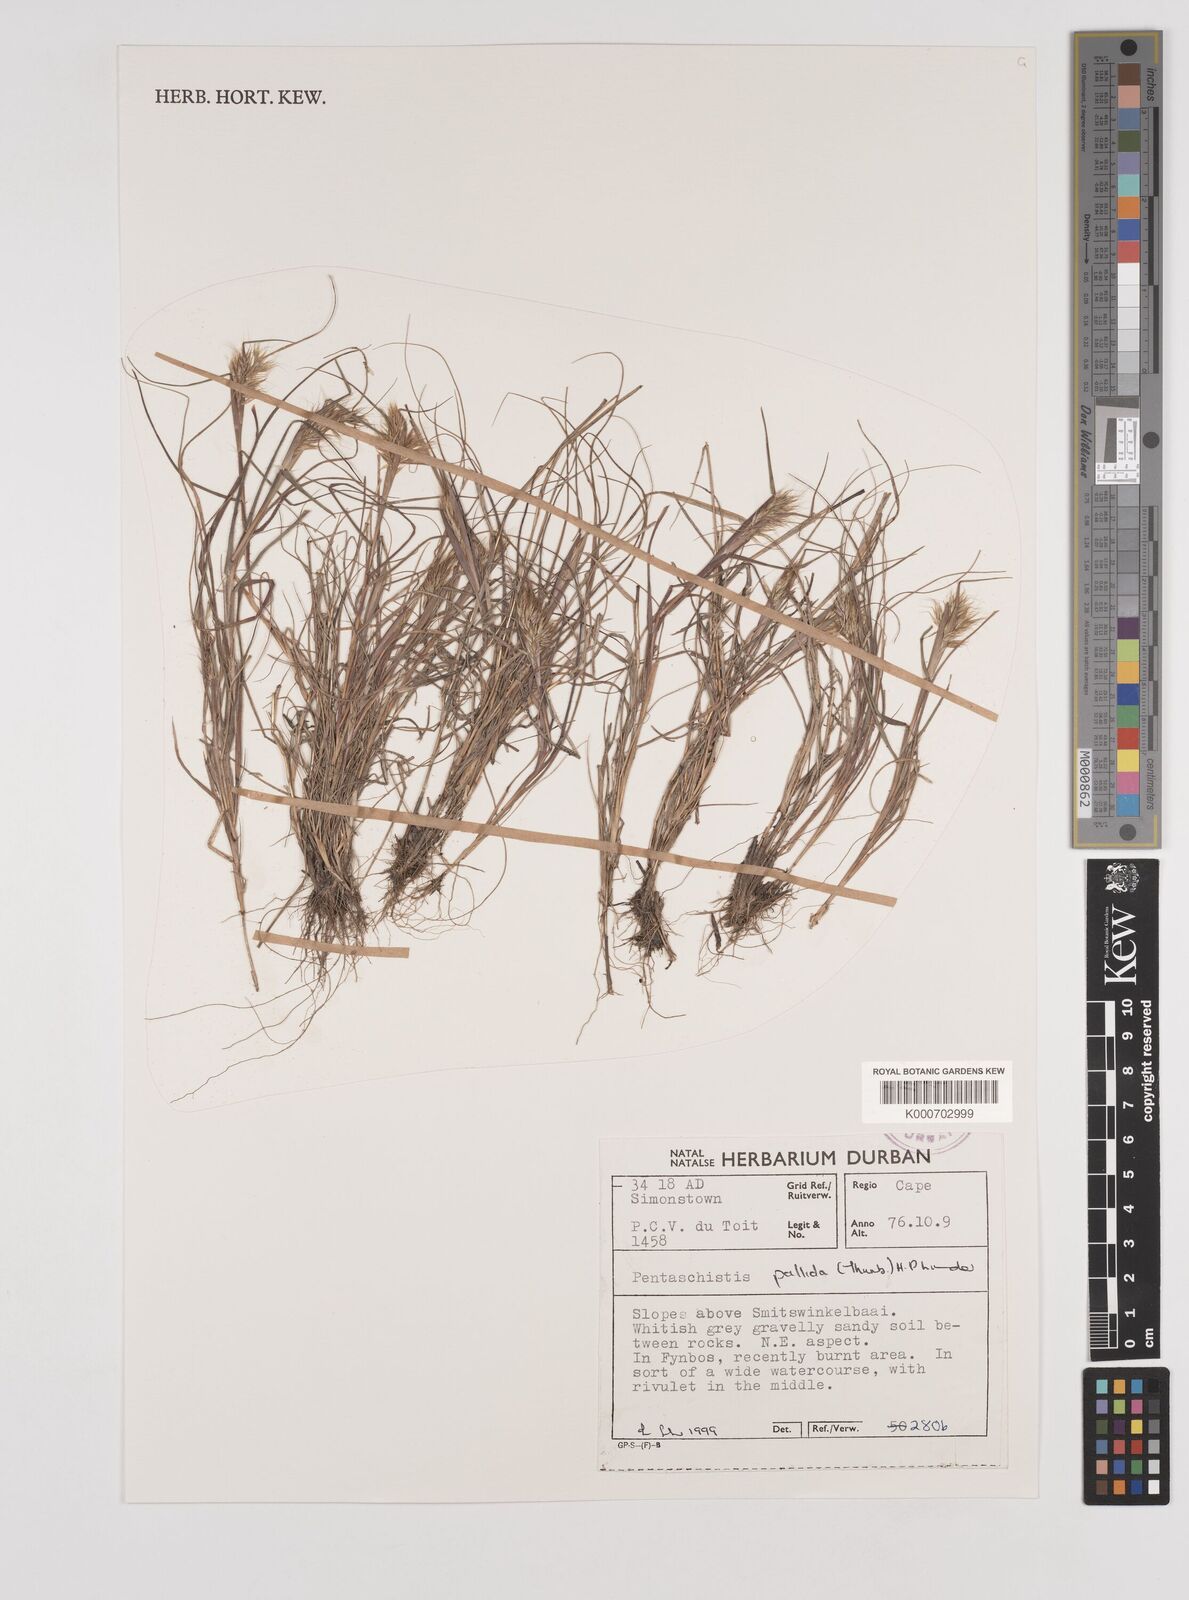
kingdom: Plantae
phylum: Tracheophyta
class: Liliopsida
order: Poales
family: Poaceae
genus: Pentameris
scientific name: Pentameris pallida
